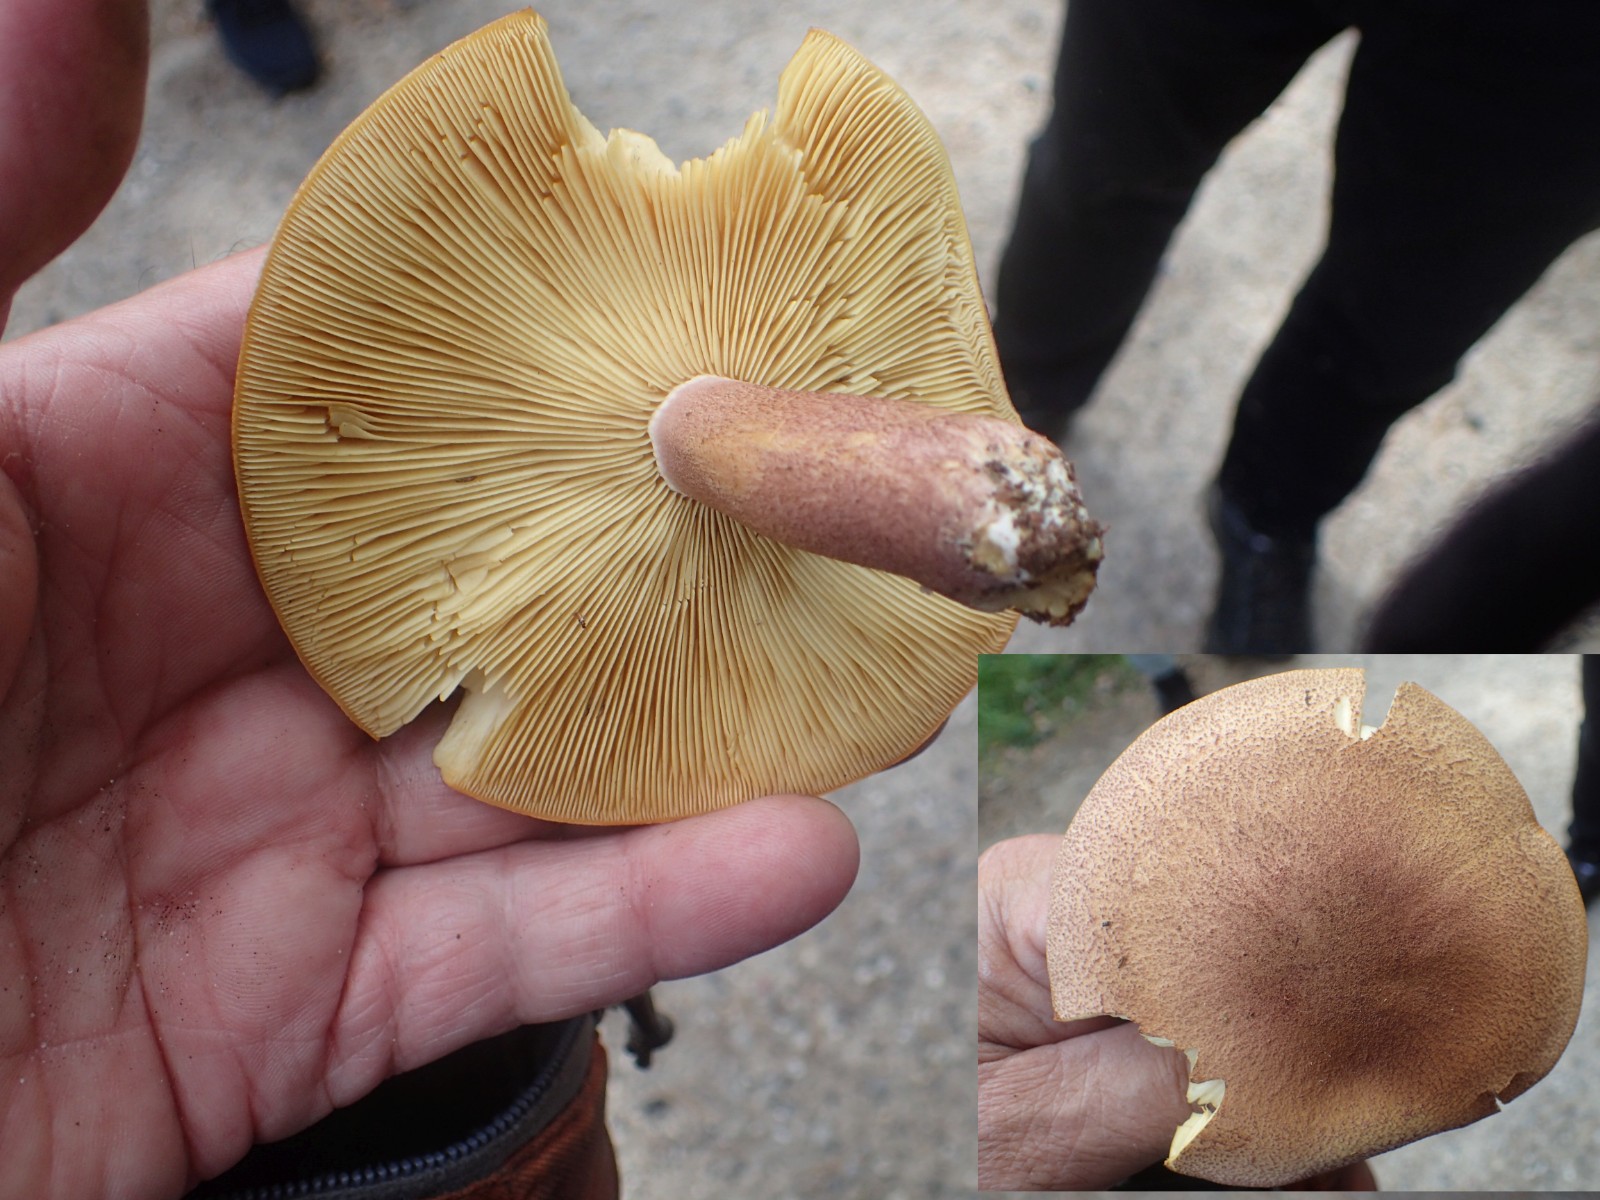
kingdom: Fungi
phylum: Basidiomycota
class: Agaricomycetes
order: Agaricales
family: Tricholomataceae
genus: Tricholomopsis
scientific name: Tricholomopsis rutilans
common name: purpur-væbnerhat
